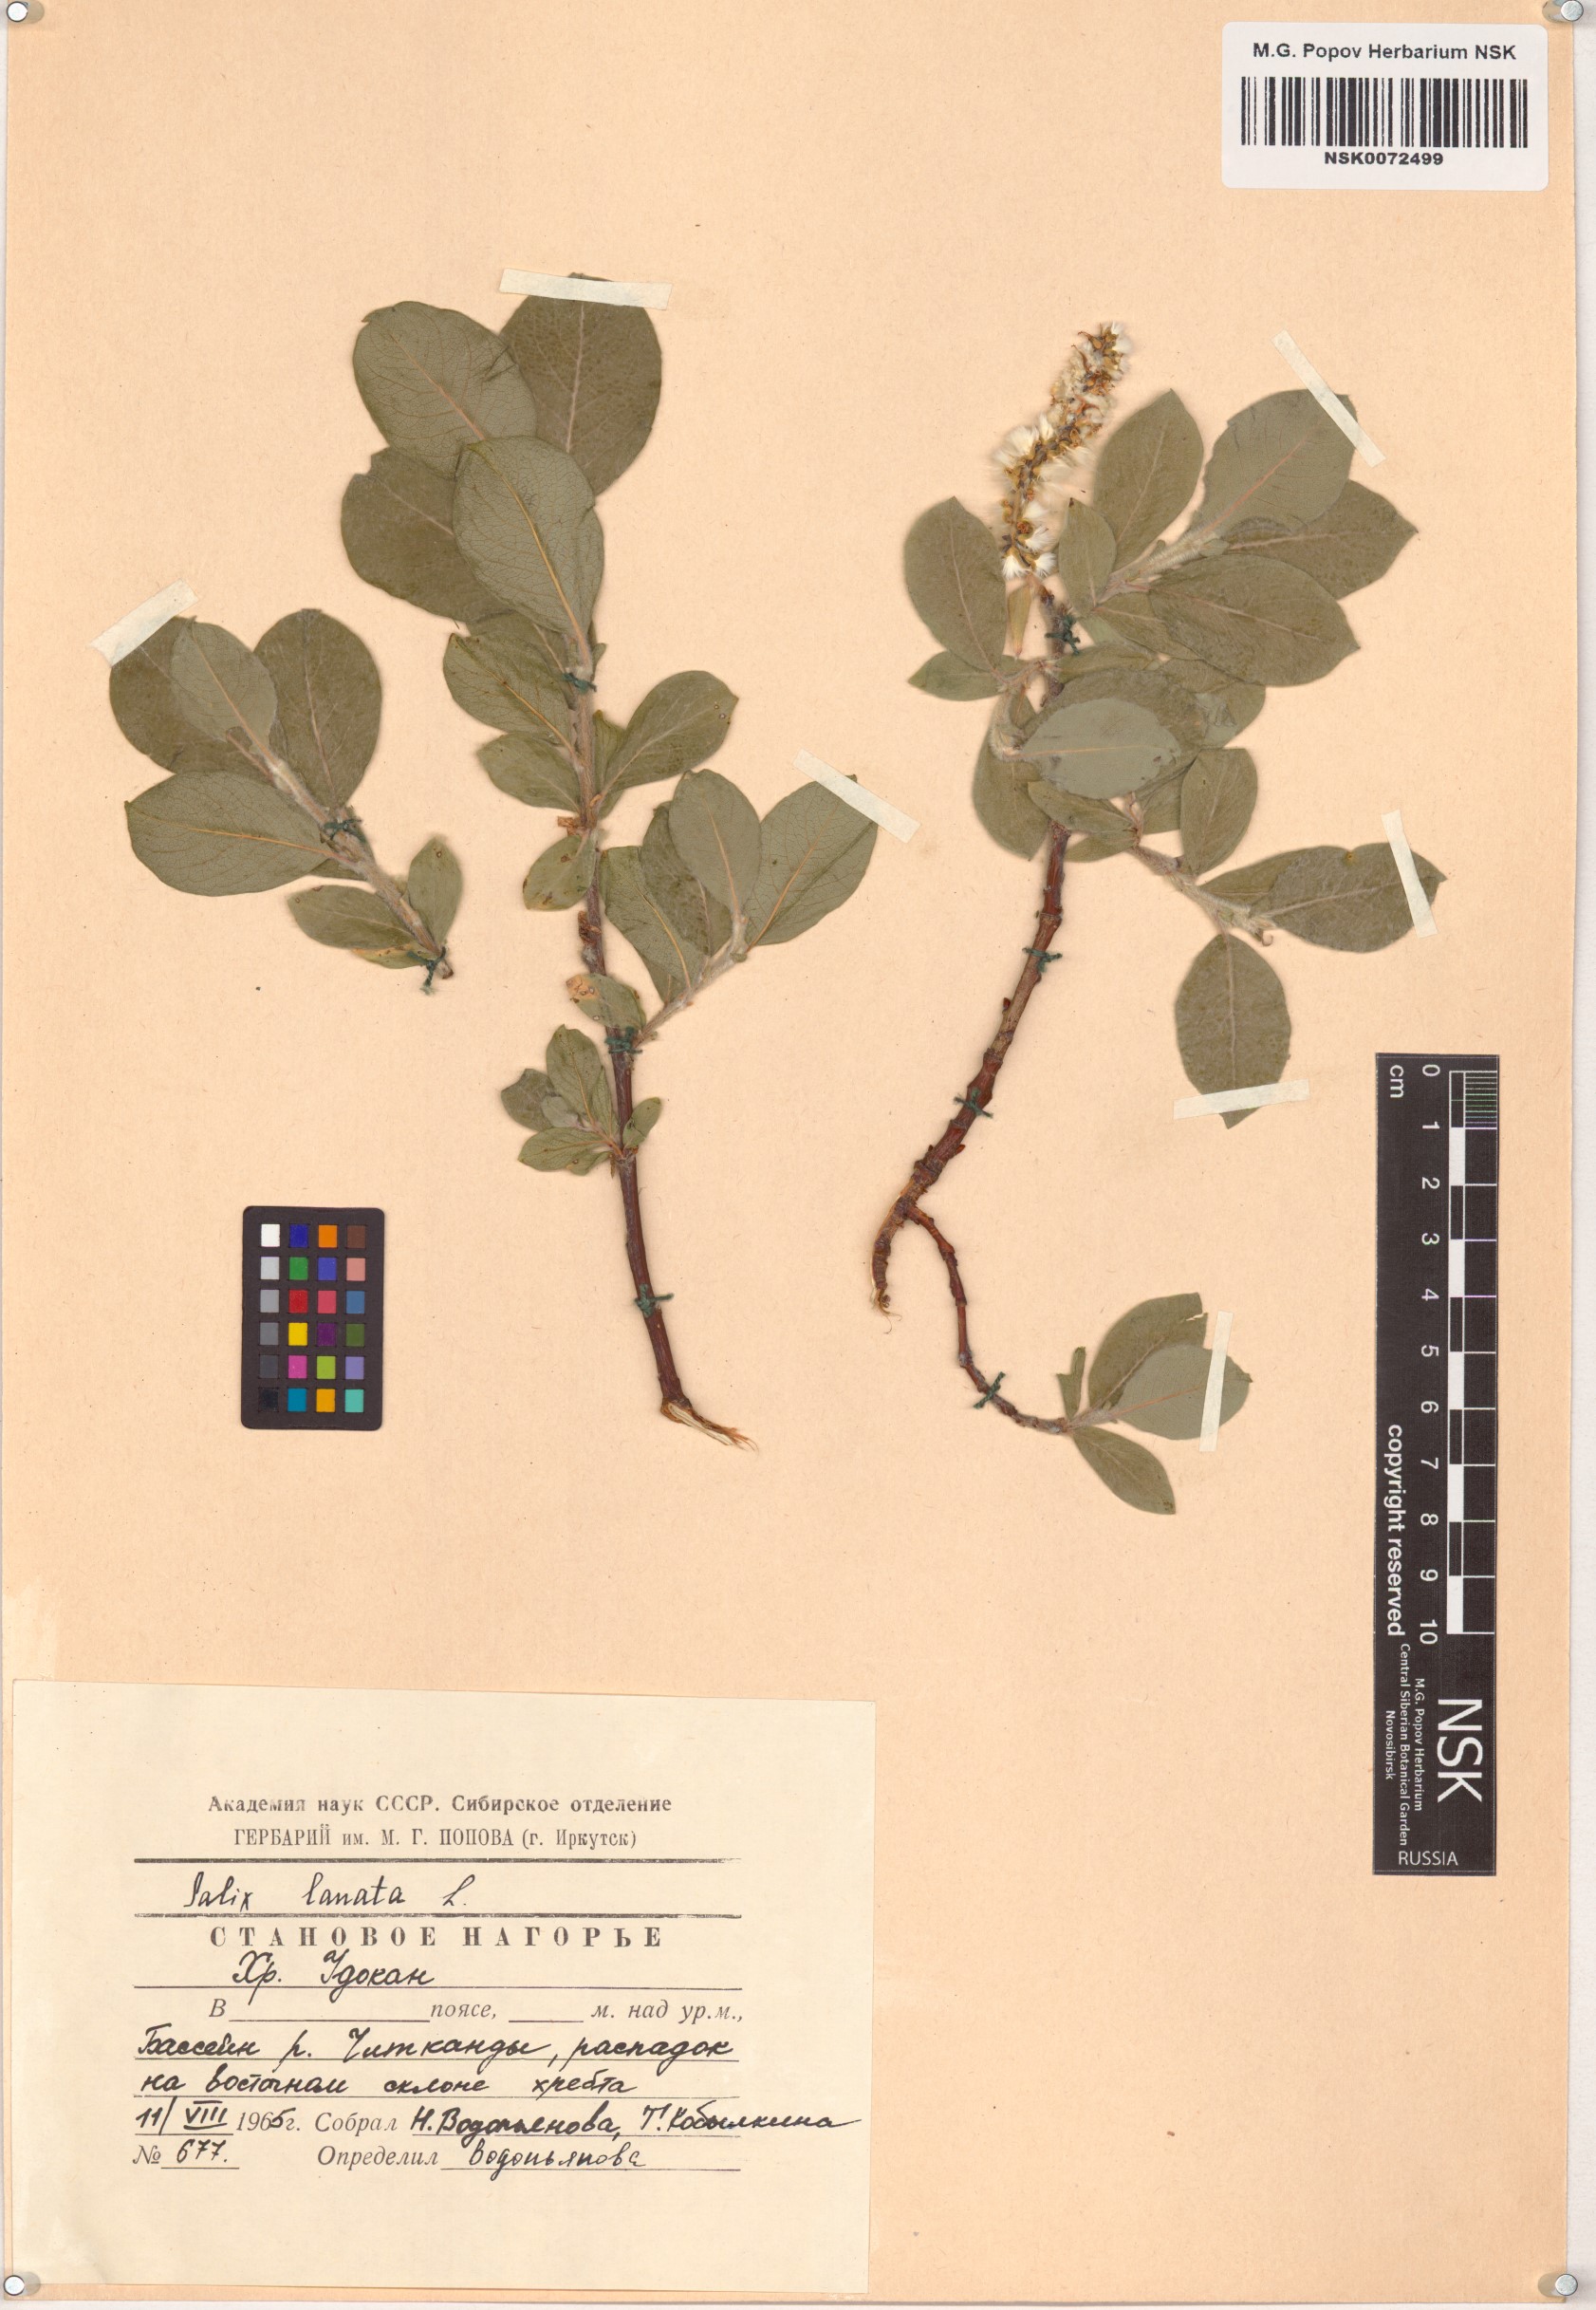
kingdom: Plantae
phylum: Tracheophyta
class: Magnoliopsida
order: Malpighiales
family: Salicaceae
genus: Salix
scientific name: Salix lanata
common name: Woolly willow
